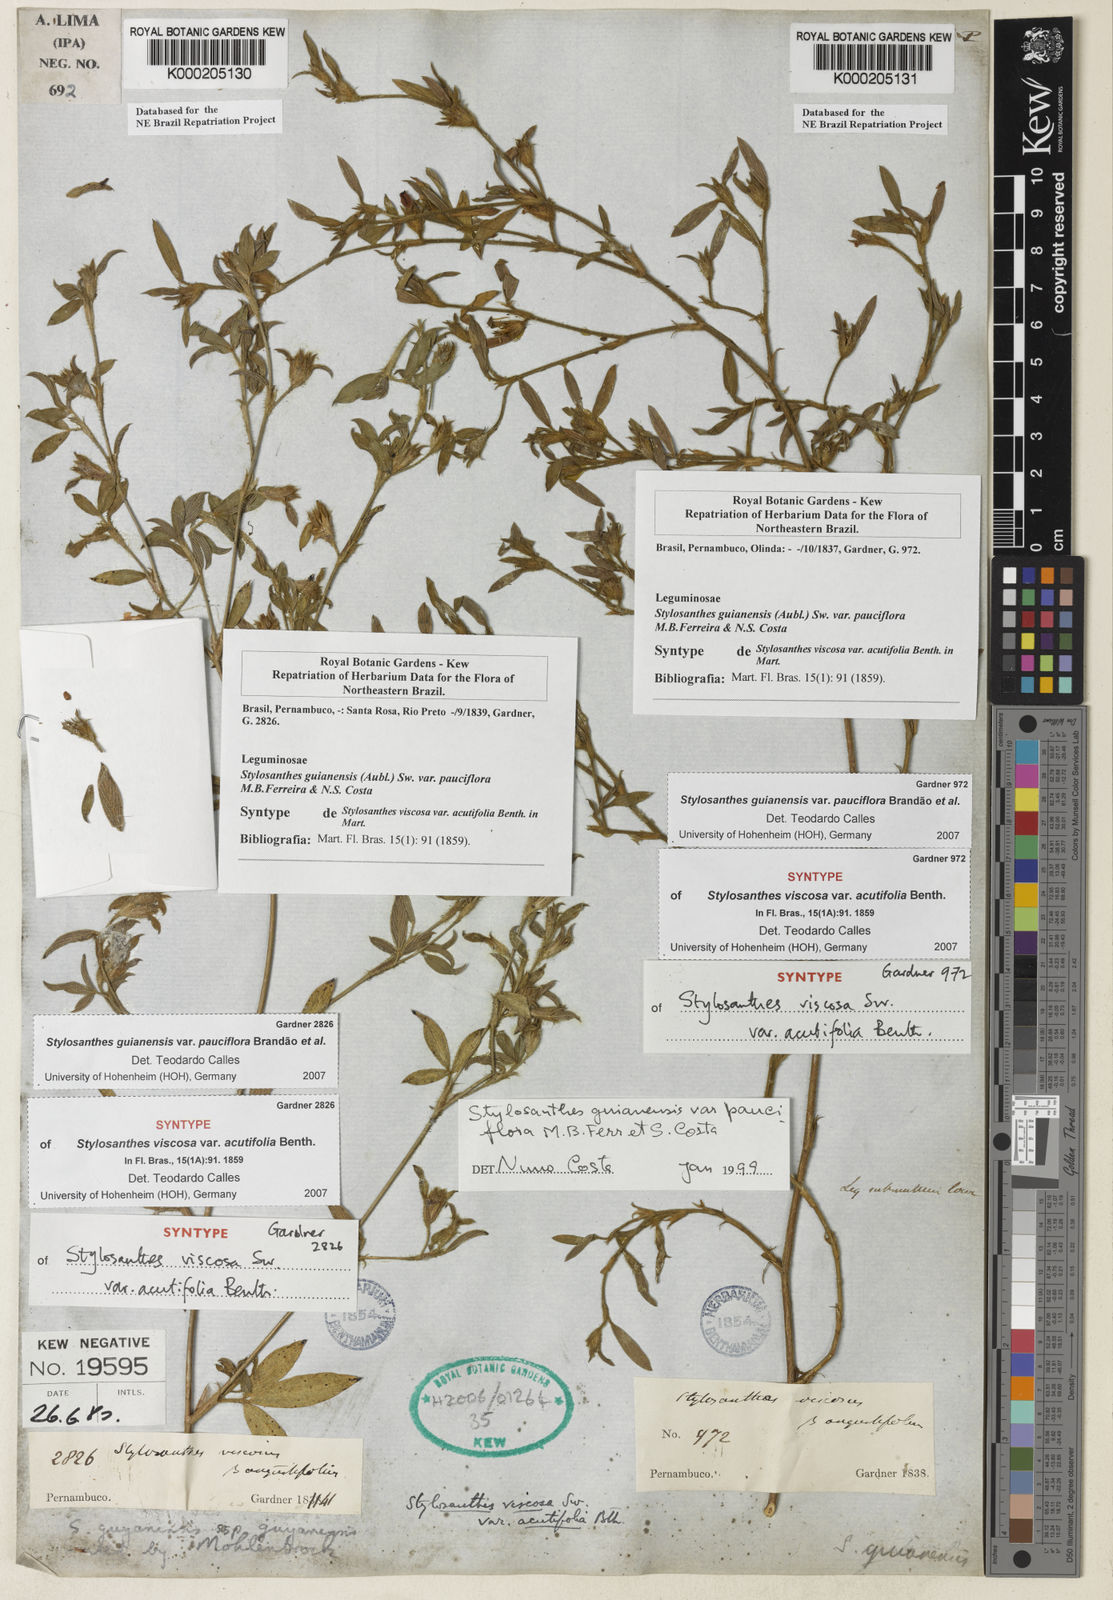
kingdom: Plantae
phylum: Tracheophyta
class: Magnoliopsida
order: Fabales
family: Fabaceae
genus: Stylosanthes
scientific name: Stylosanthes guianensis
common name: Pencil flower
